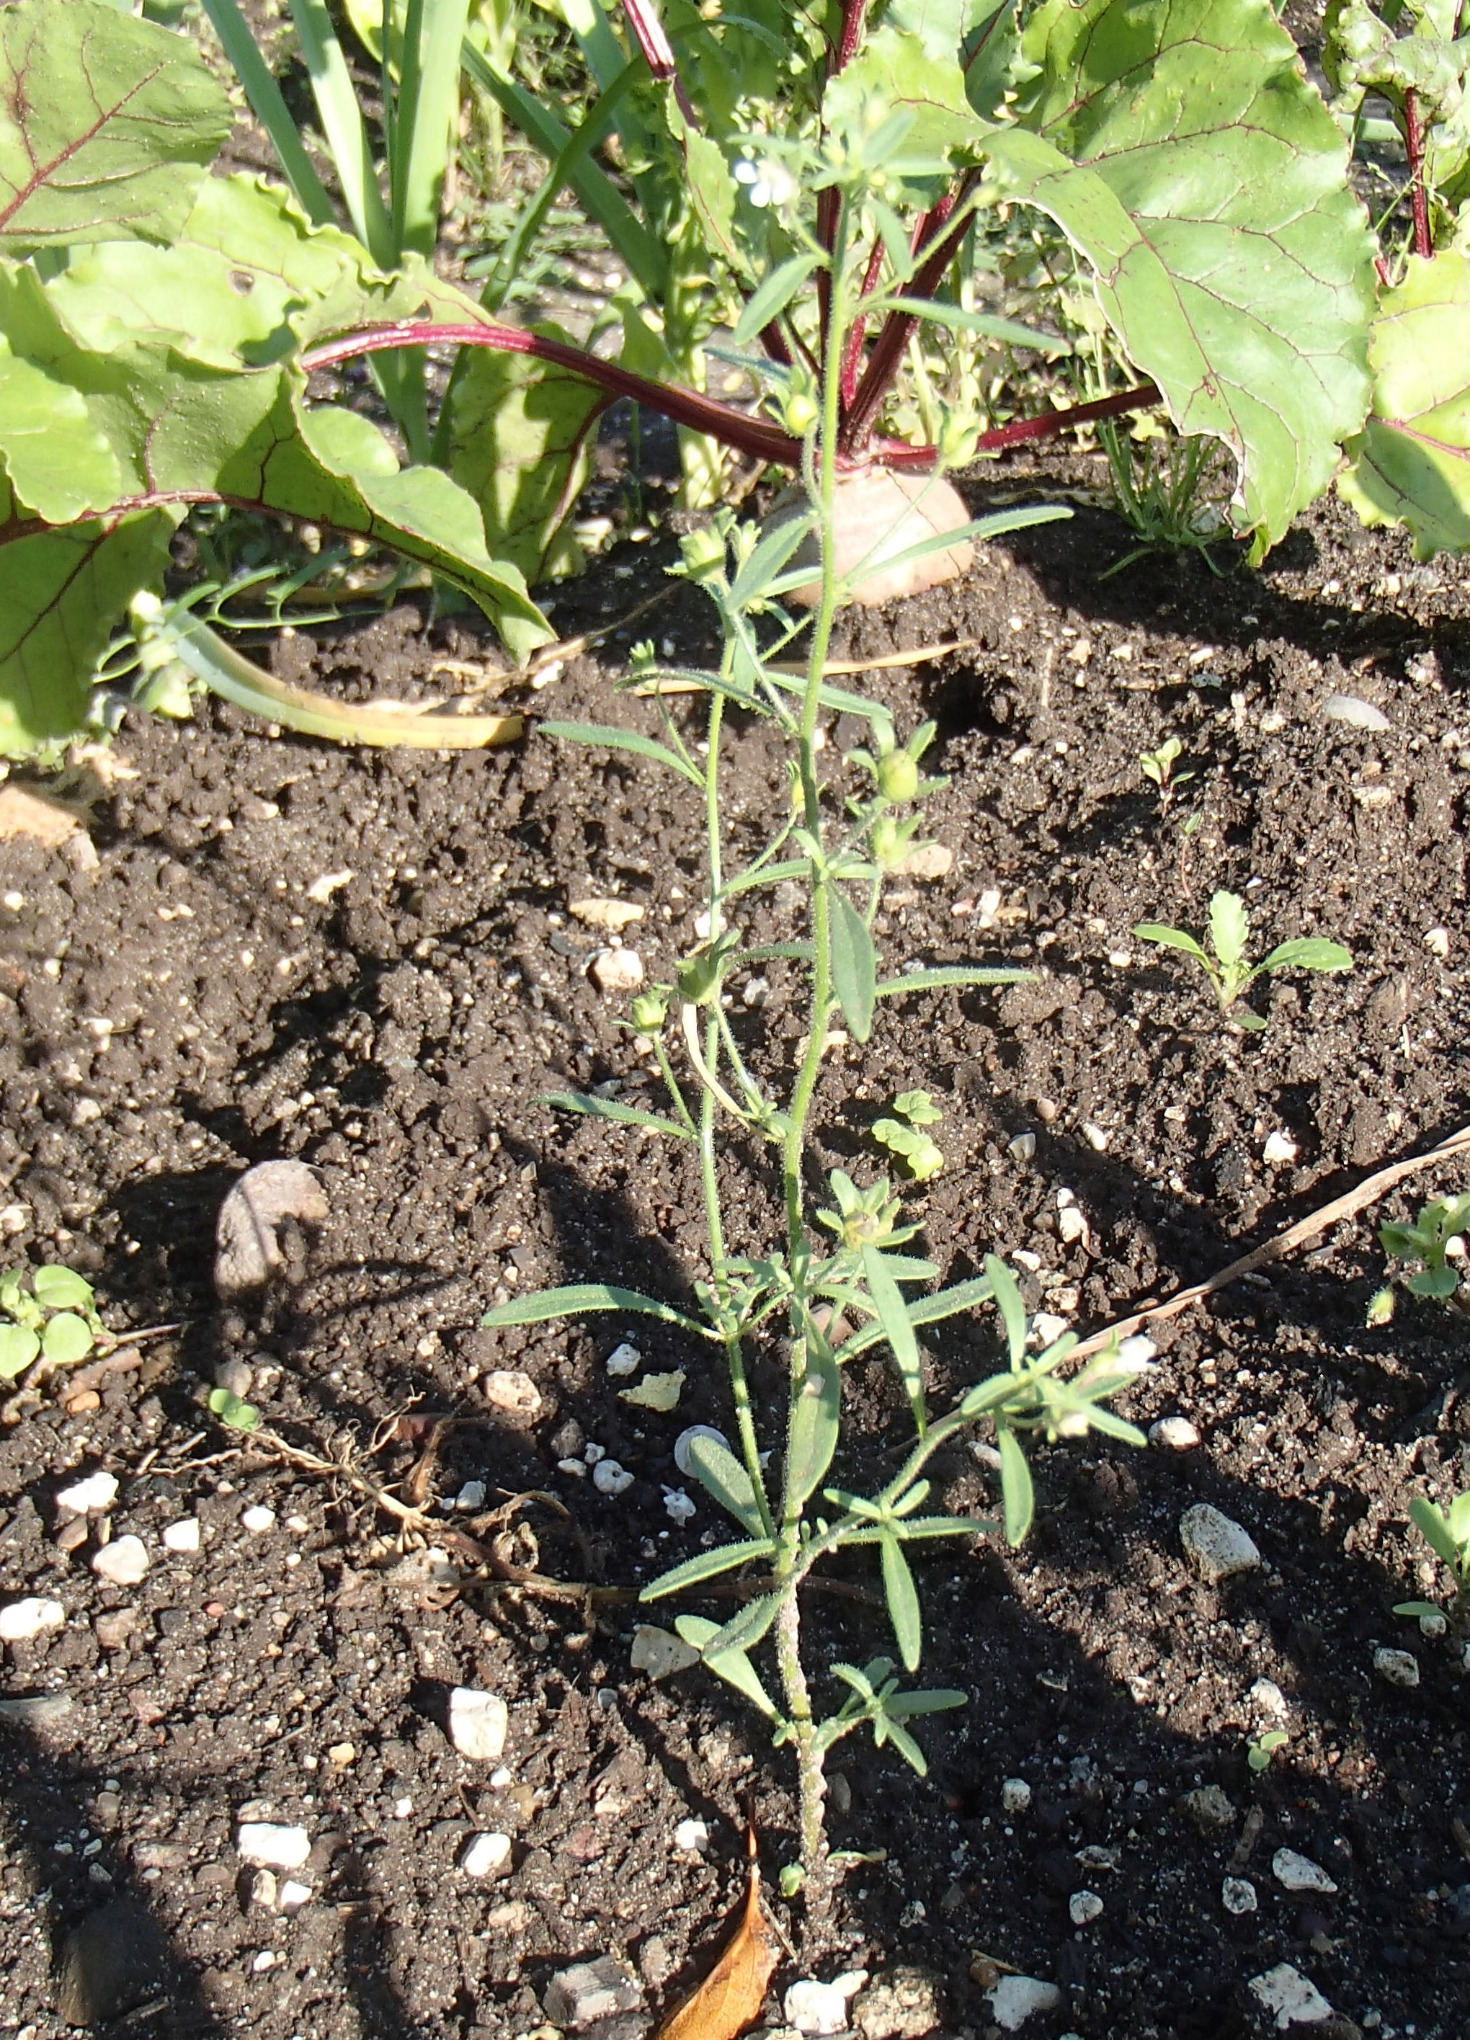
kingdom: Plantae
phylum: Tracheophyta
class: Magnoliopsida
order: Lamiales
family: Plantaginaceae
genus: Chaenorhinum
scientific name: Chaenorhinum minus
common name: Liden torskemund
